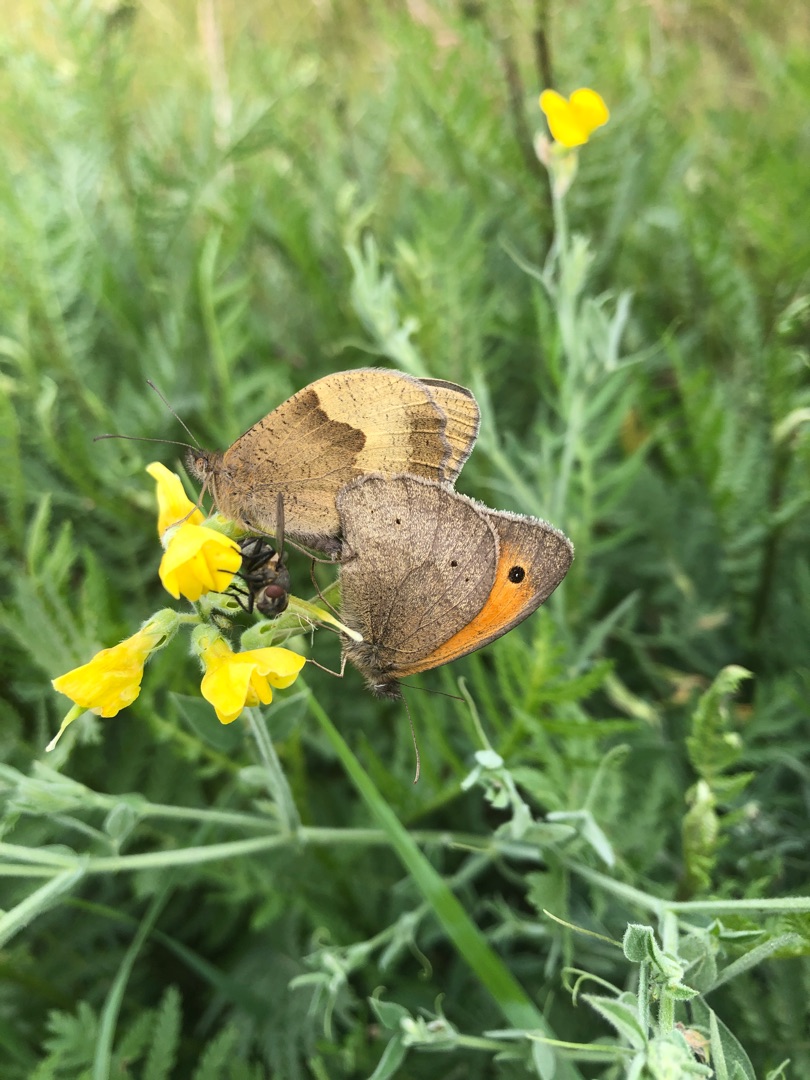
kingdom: Animalia
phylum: Arthropoda
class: Insecta
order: Lepidoptera
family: Nymphalidae
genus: Maniola
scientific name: Maniola jurtina
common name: Græsrandøje
